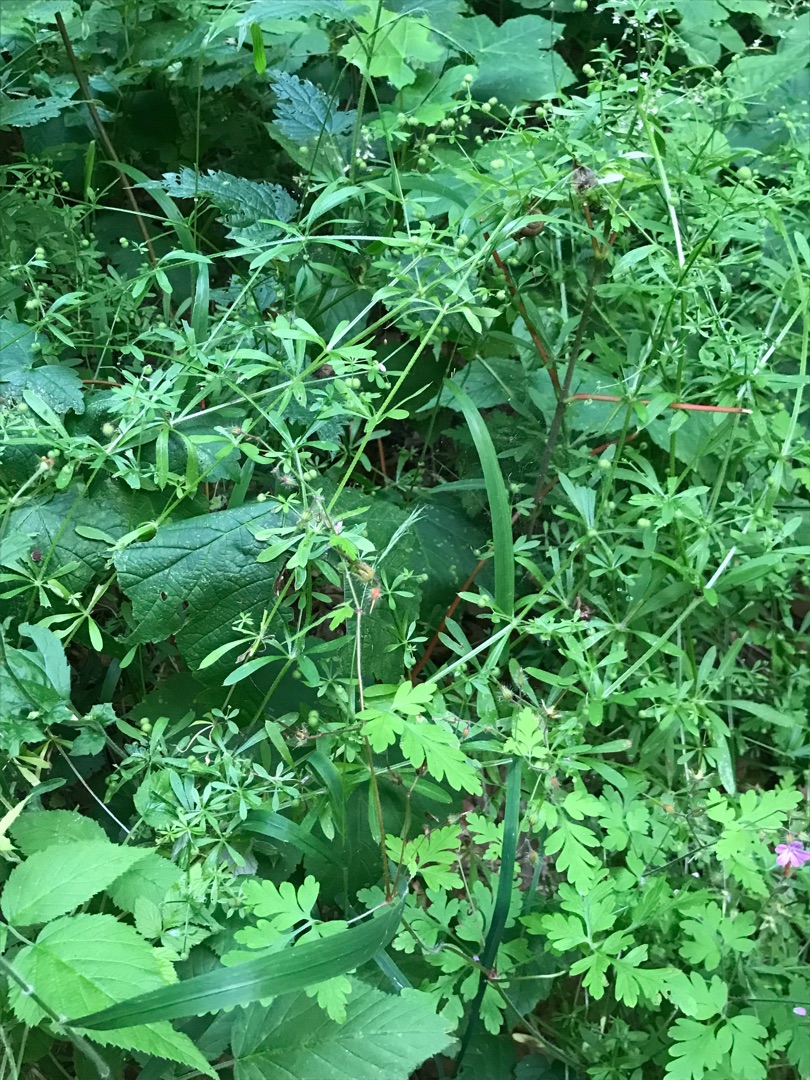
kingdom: Plantae
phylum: Tracheophyta
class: Magnoliopsida
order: Gentianales
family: Rubiaceae
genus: Galium
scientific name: Galium aparine
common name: Burre-snerre
